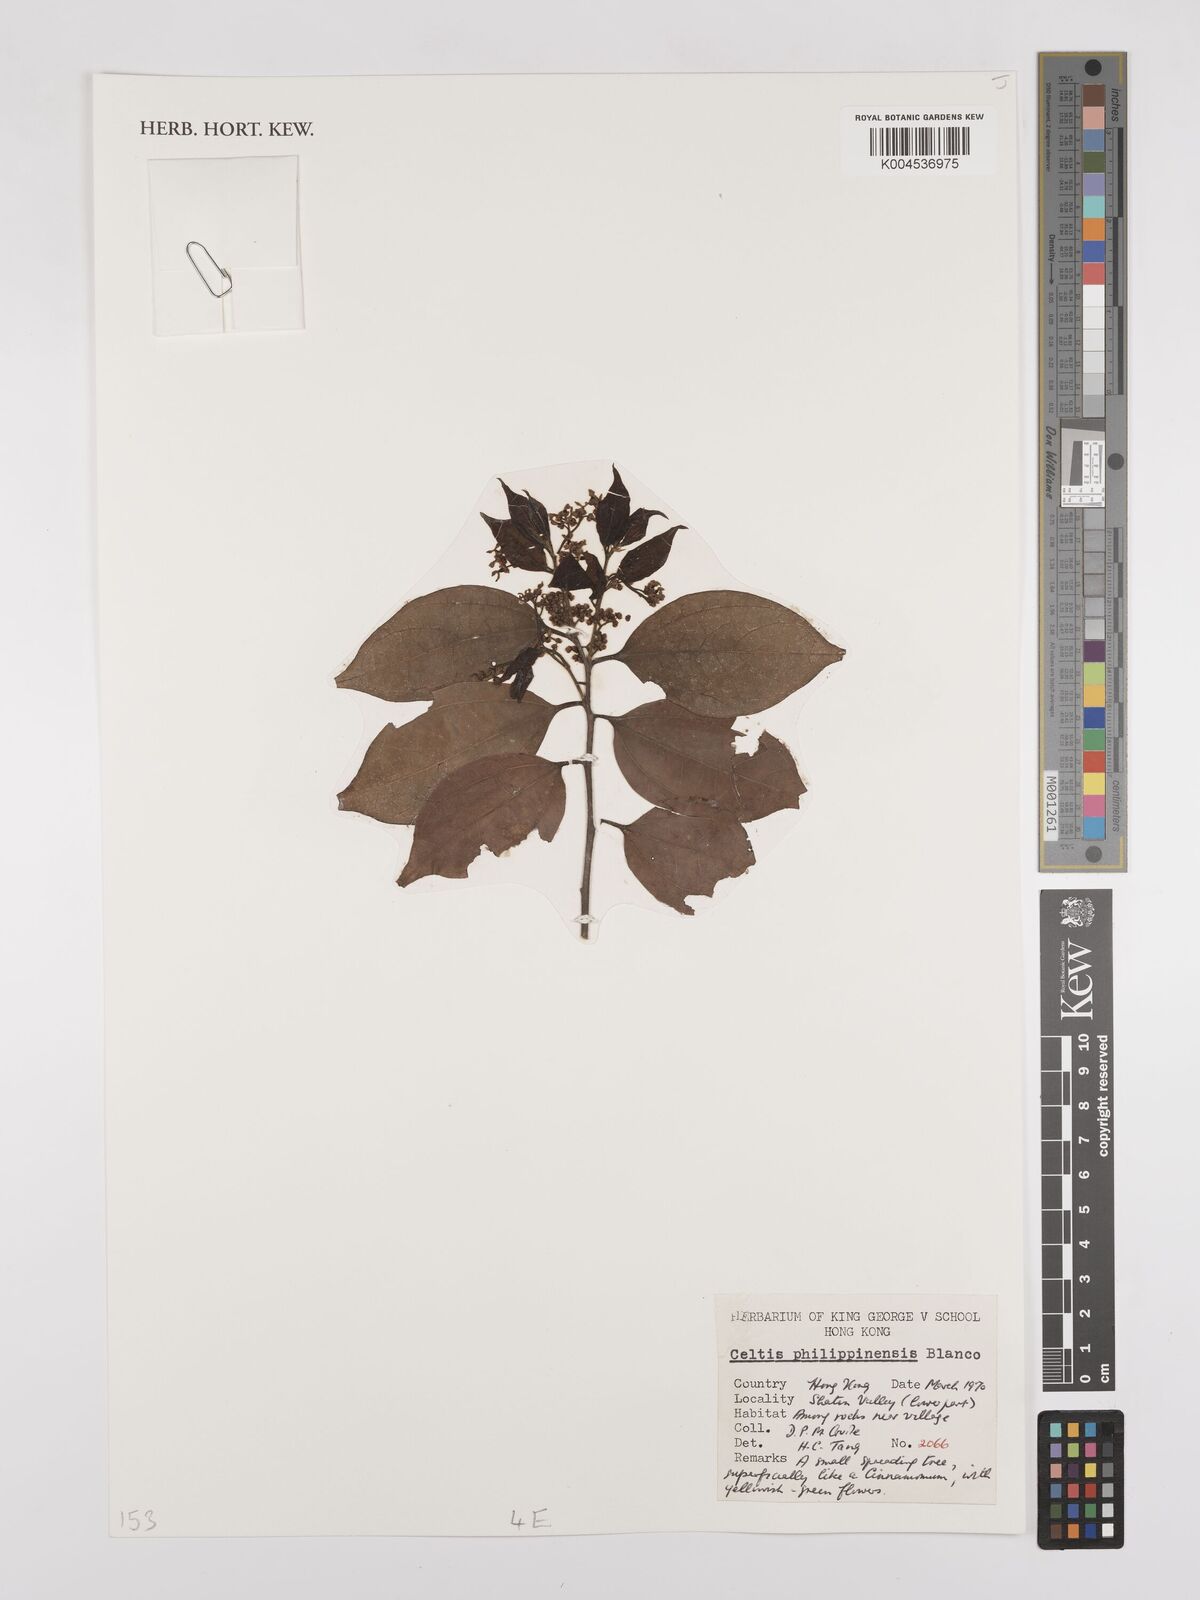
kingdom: Plantae
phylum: Tracheophyta
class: Magnoliopsida
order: Rosales
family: Cannabaceae
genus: Celtis
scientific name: Celtis philippensis
